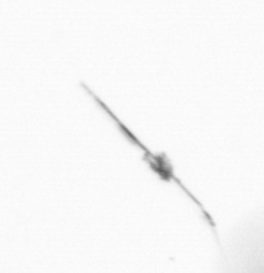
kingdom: Chromista
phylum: Ochrophyta
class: Bacillariophyceae
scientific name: Bacillariophyceae
